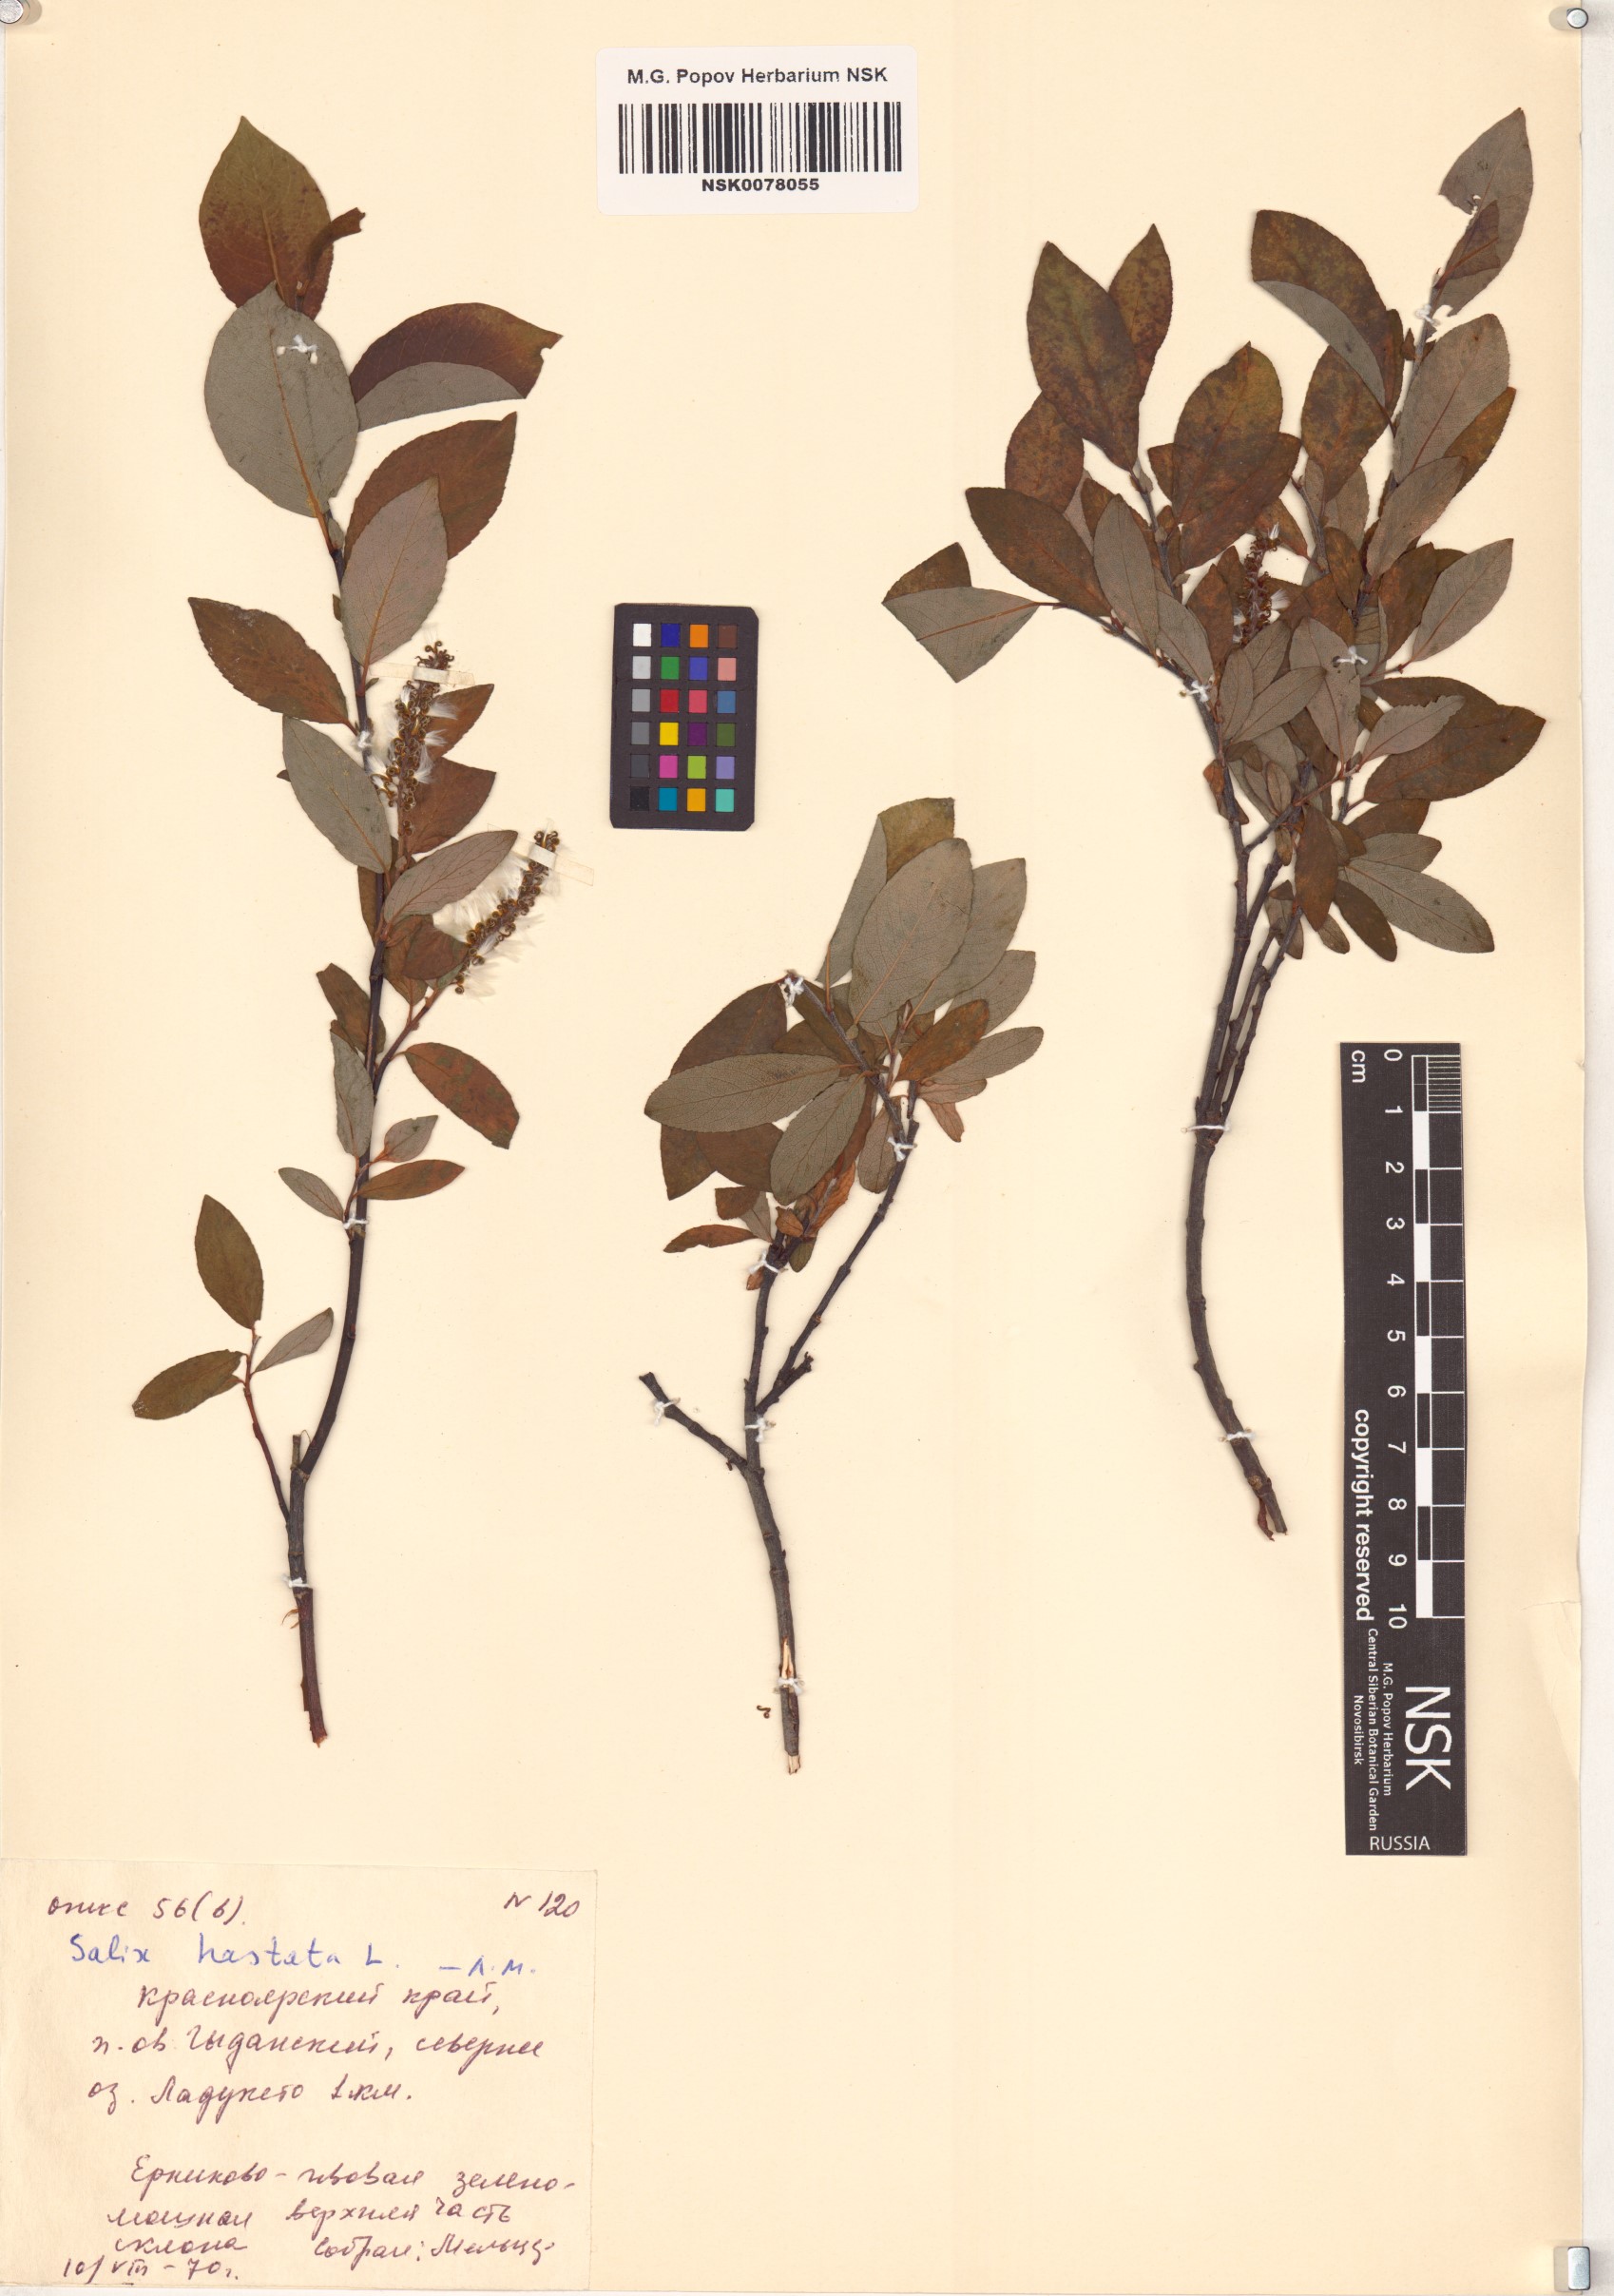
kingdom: Plantae
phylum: Tracheophyta
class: Magnoliopsida
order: Malpighiales
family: Salicaceae
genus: Salix
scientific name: Salix hastata
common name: Halberd willow
